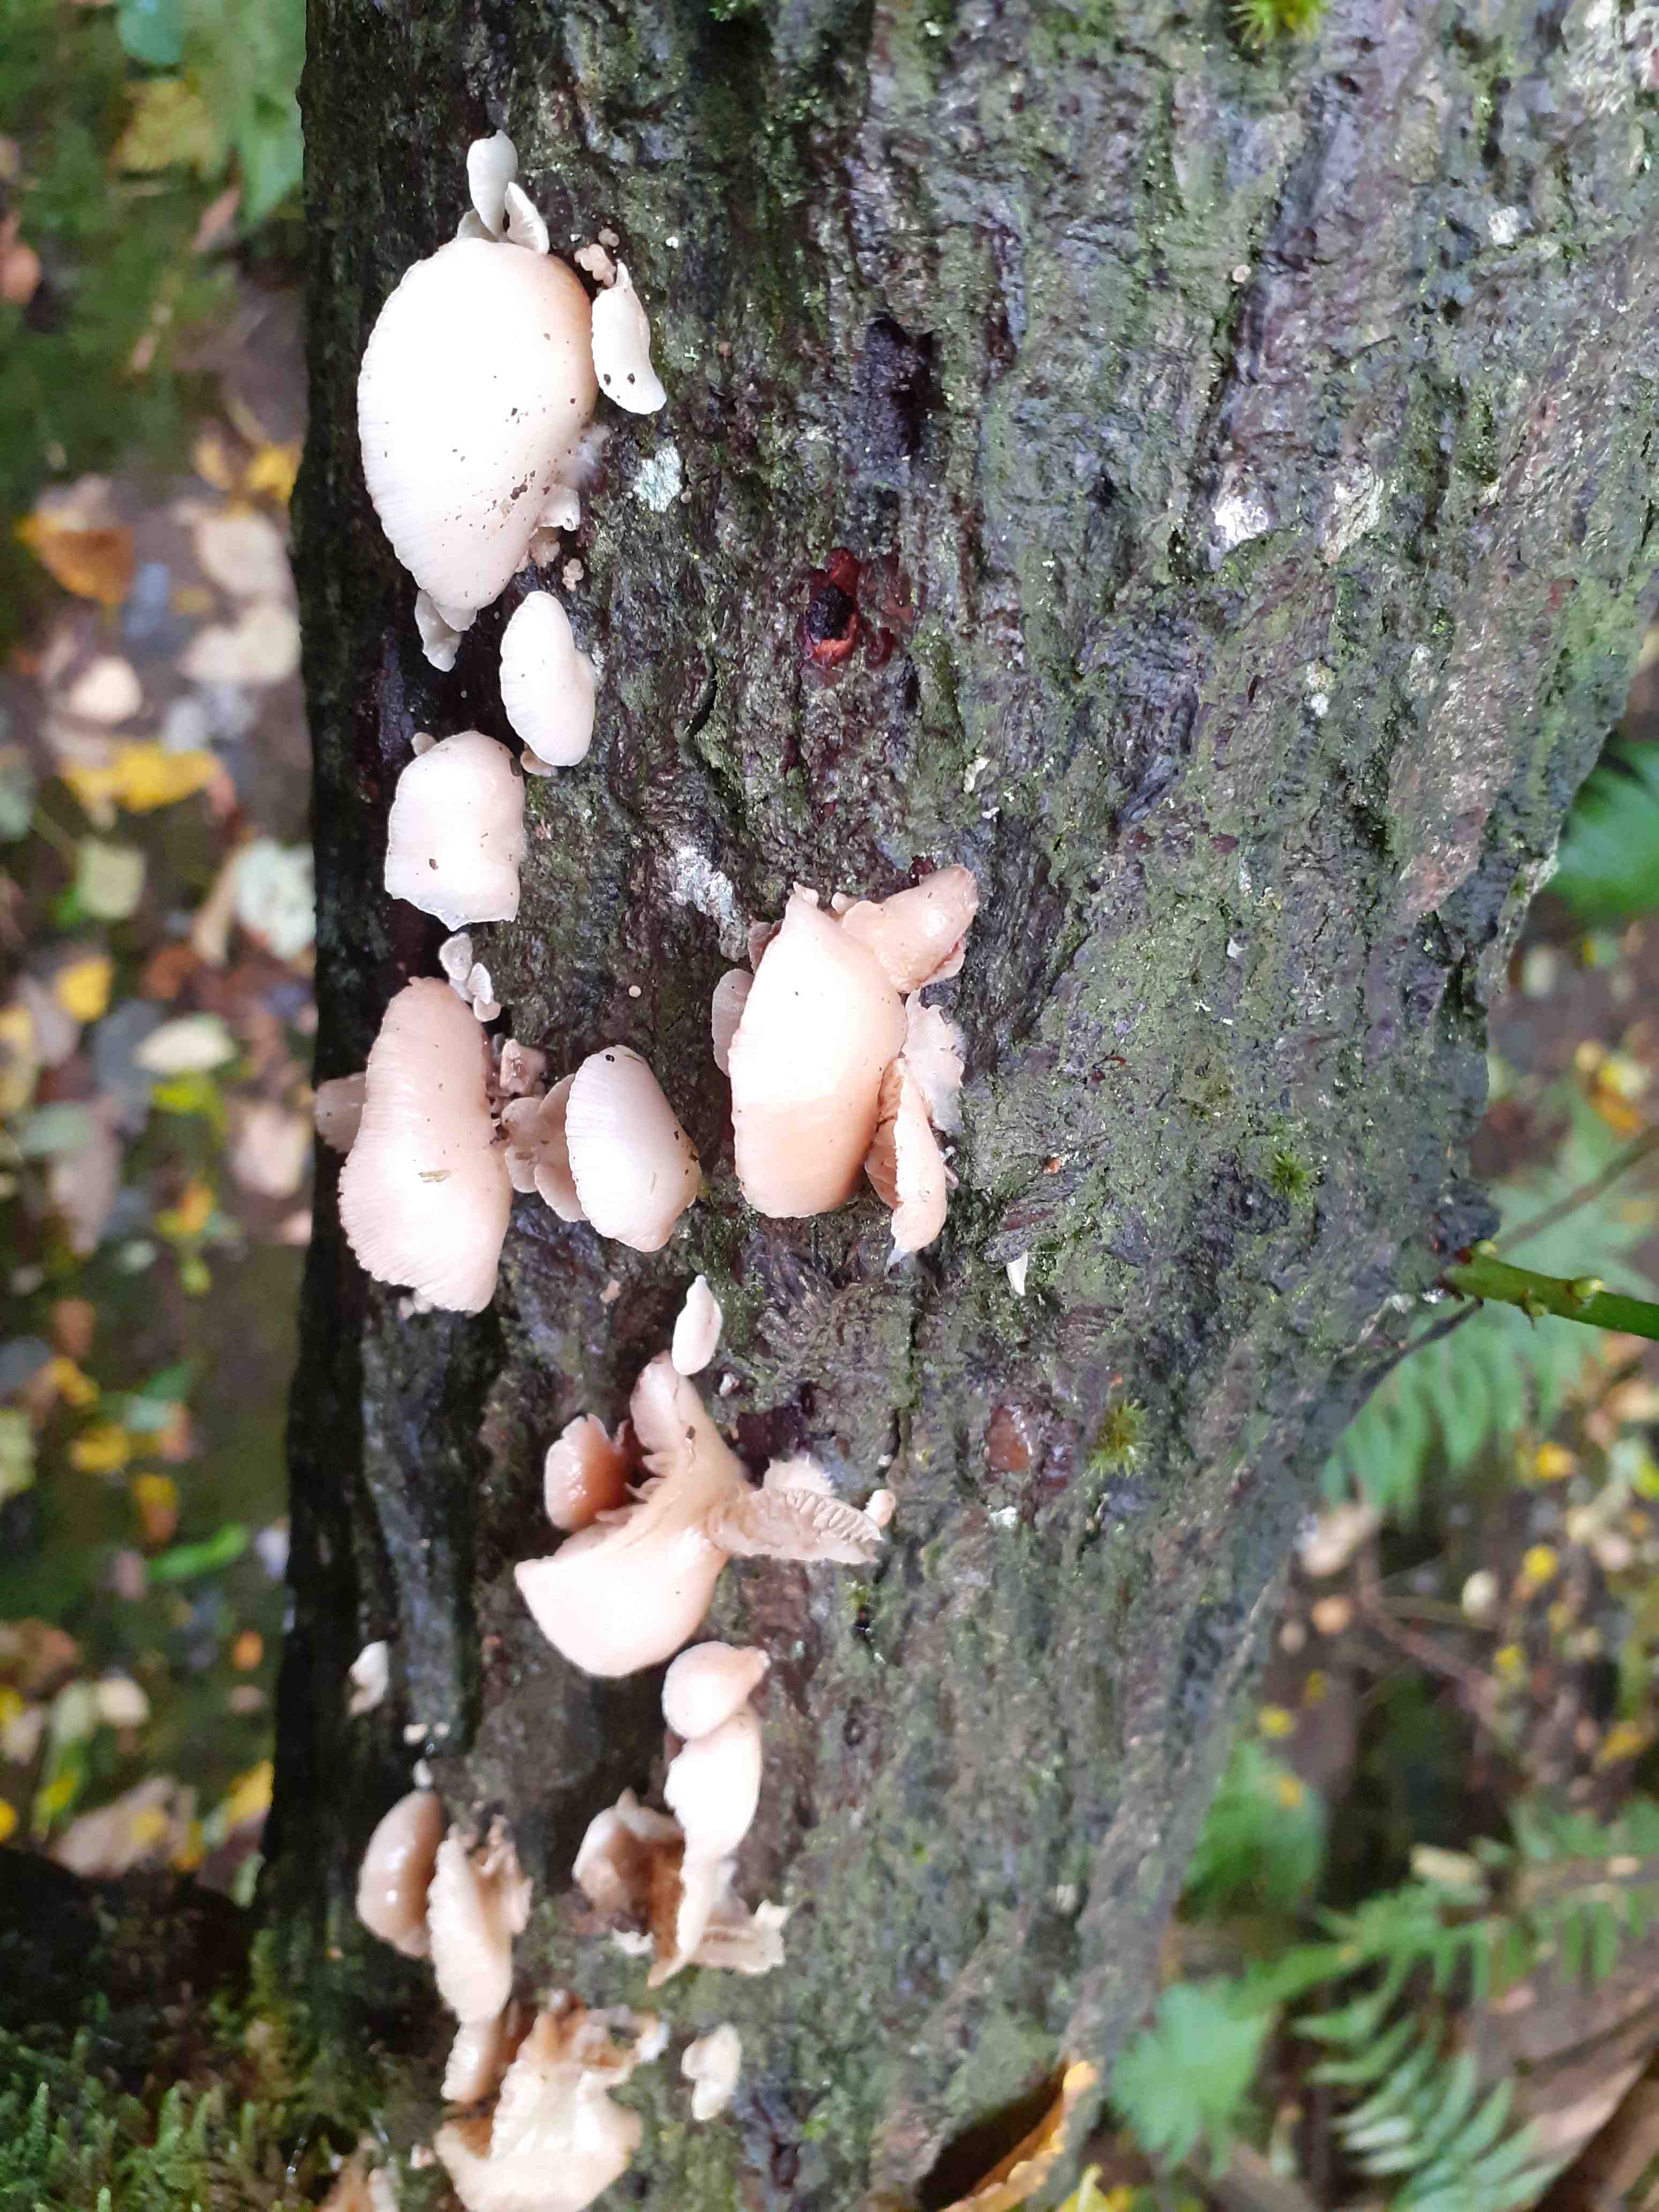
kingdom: Fungi
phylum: Basidiomycota
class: Agaricomycetes
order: Agaricales
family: Crepidotaceae
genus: Crepidotus
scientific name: Crepidotus mollis
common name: blød muslingesvamp
